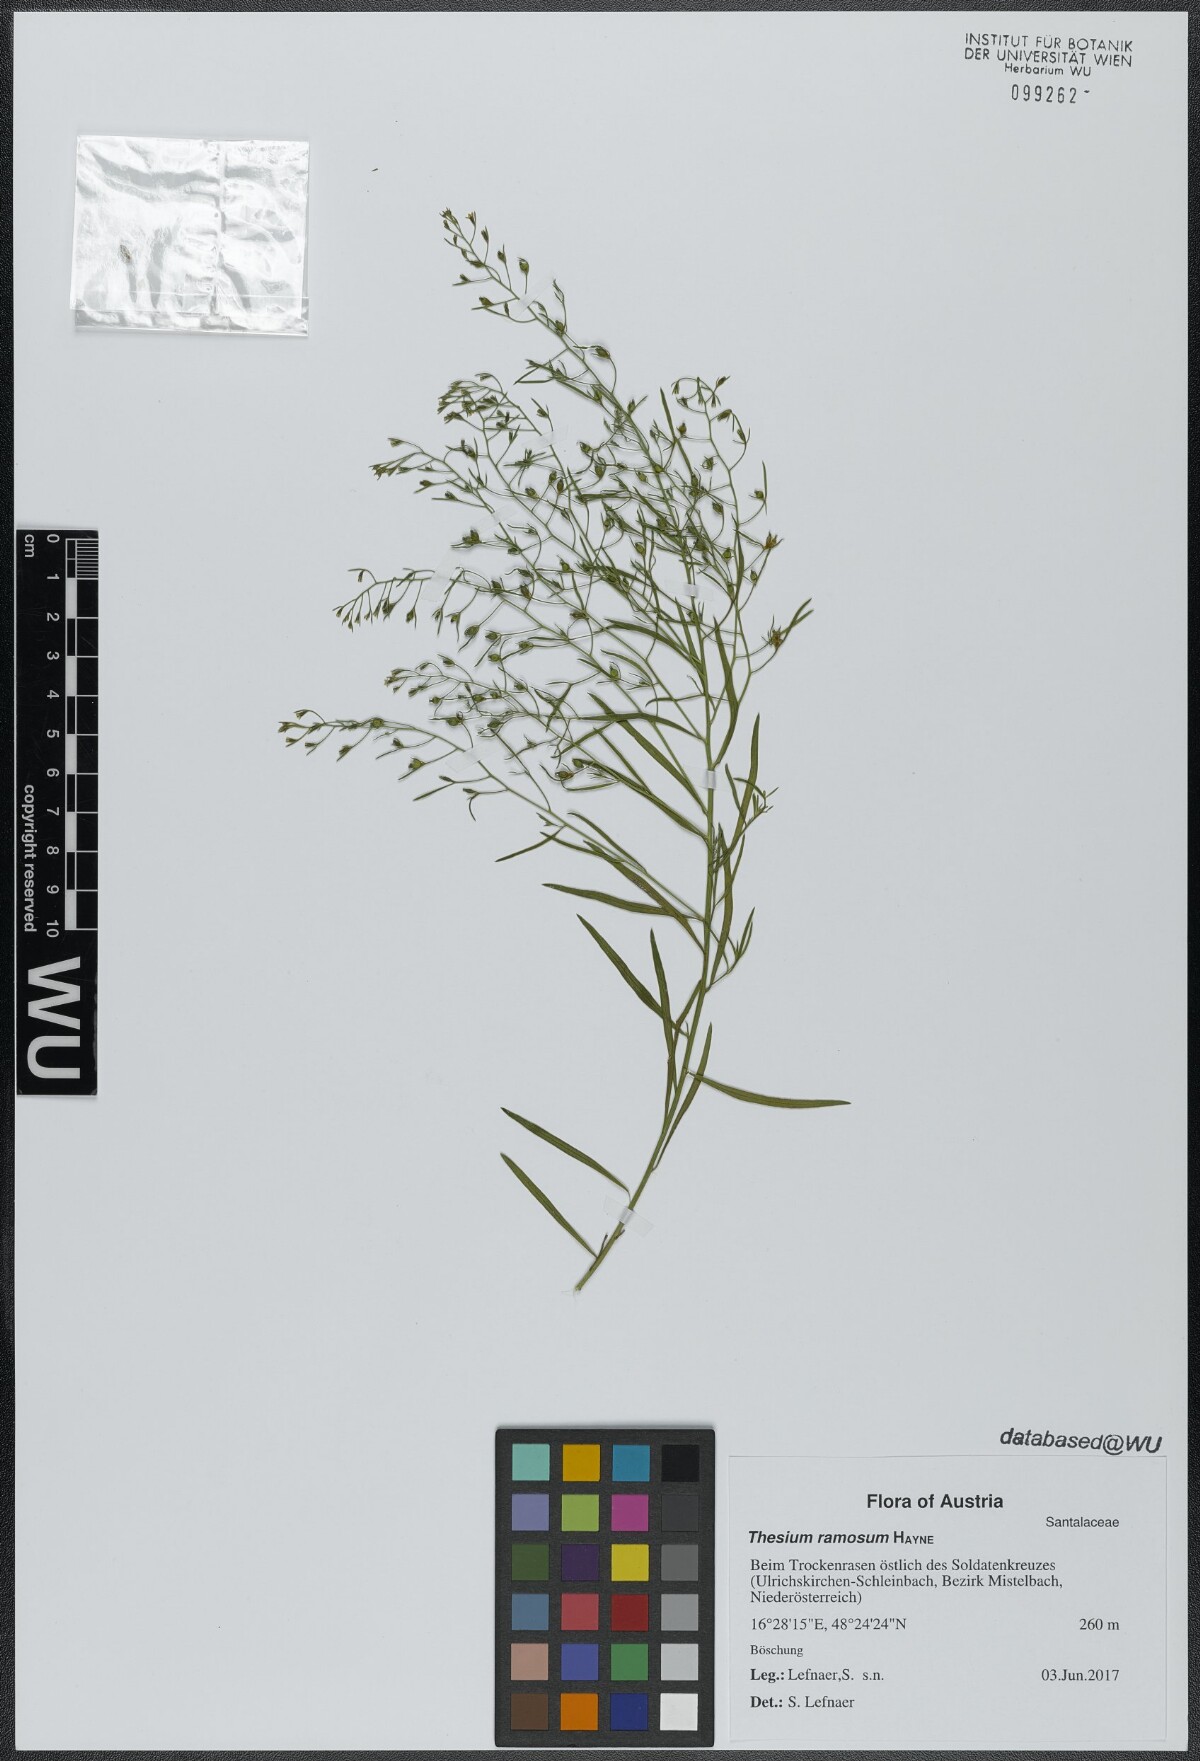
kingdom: Plantae
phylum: Tracheophyta
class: Magnoliopsida
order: Santalales
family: Thesiaceae
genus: Thesium
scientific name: Thesium ramosum
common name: Field thesium
